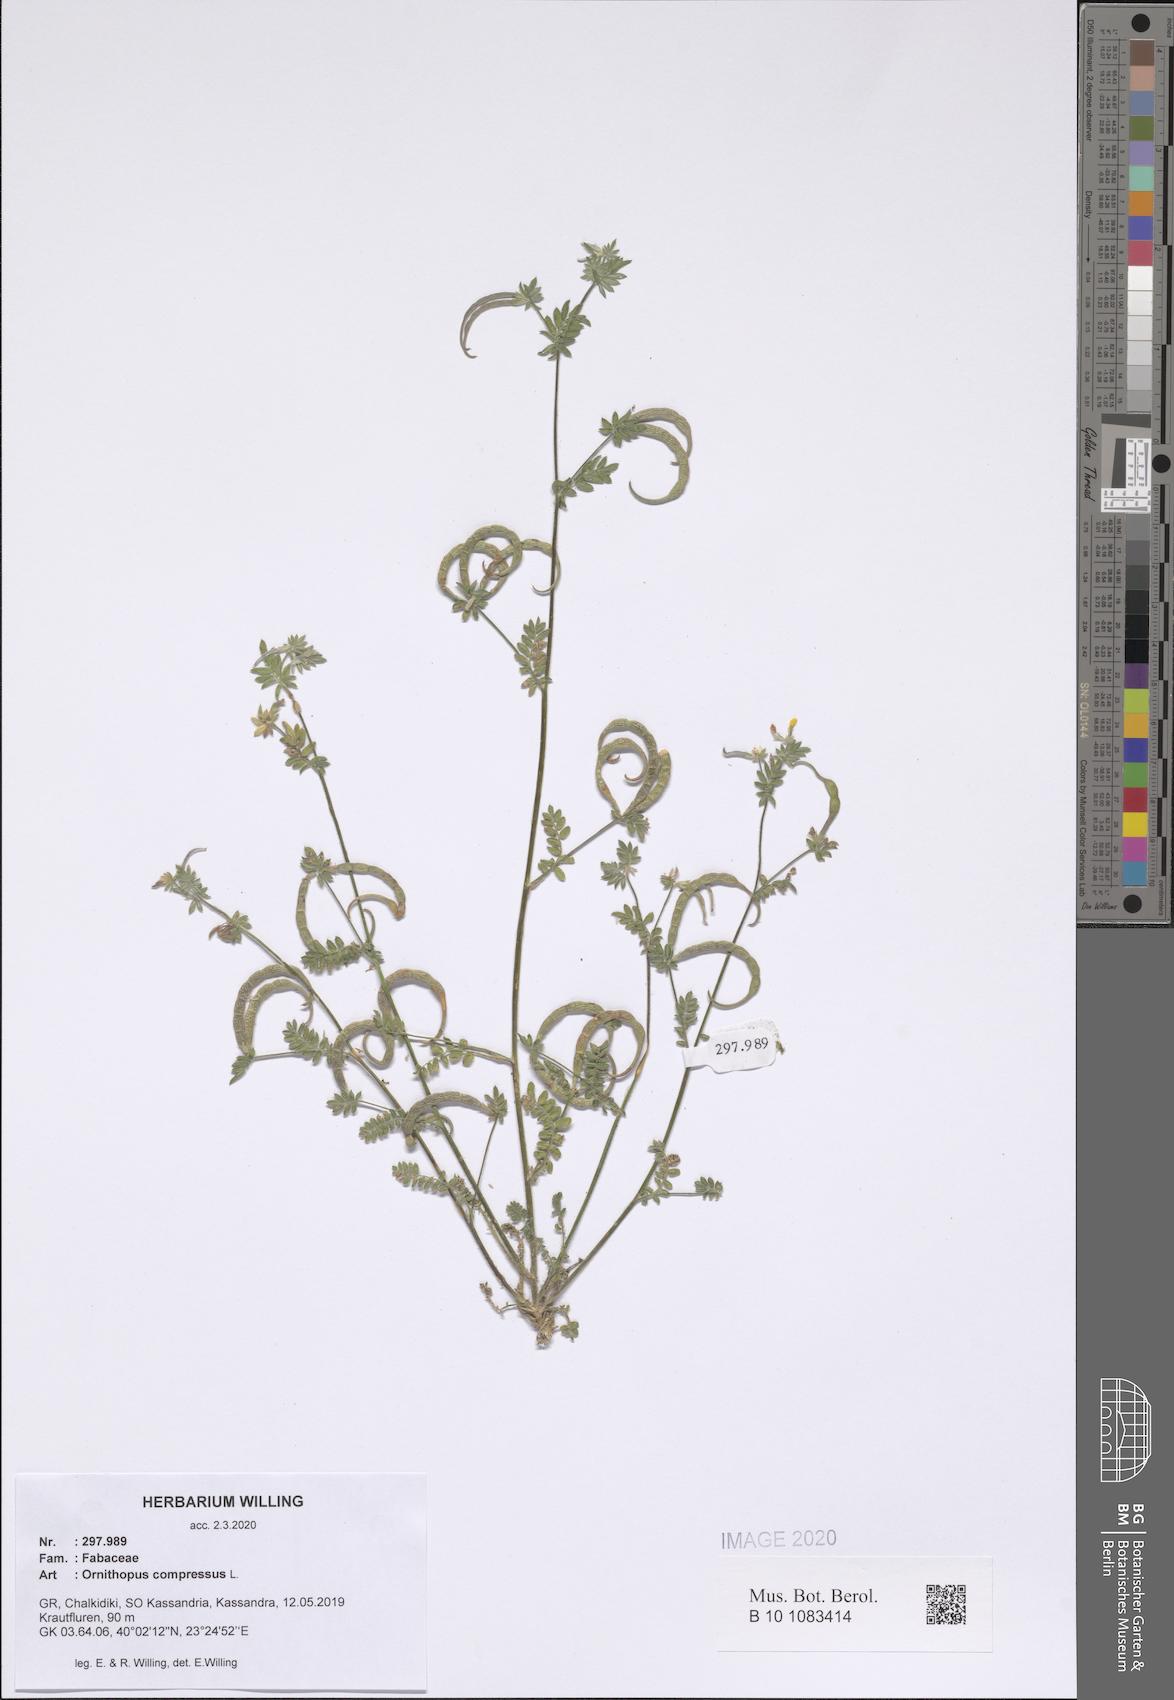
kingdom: Plantae
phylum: Tracheophyta
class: Magnoliopsida
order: Fabales
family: Fabaceae
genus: Ornithopus
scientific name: Ornithopus compressus
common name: Yellow serradella
